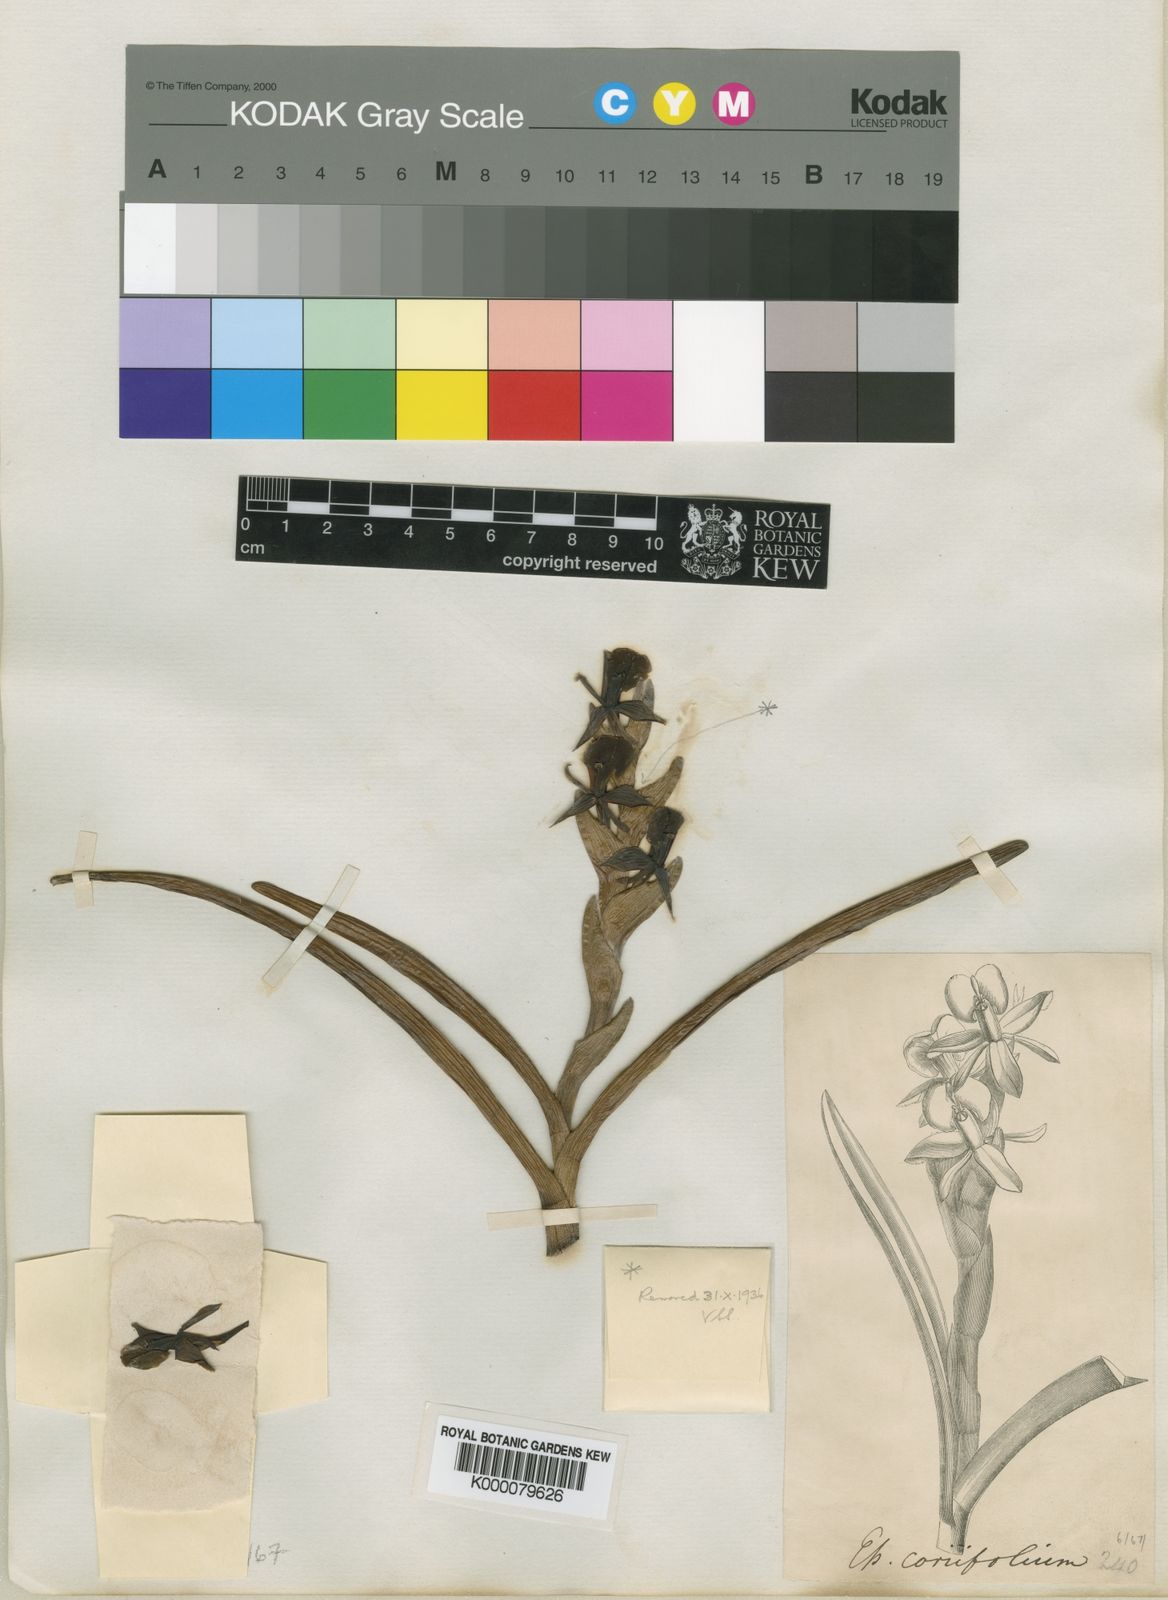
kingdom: Plantae
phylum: Tracheophyta
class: Liliopsida
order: Asparagales
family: Orchidaceae
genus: Epidendrum
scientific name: Epidendrum coriifolium
